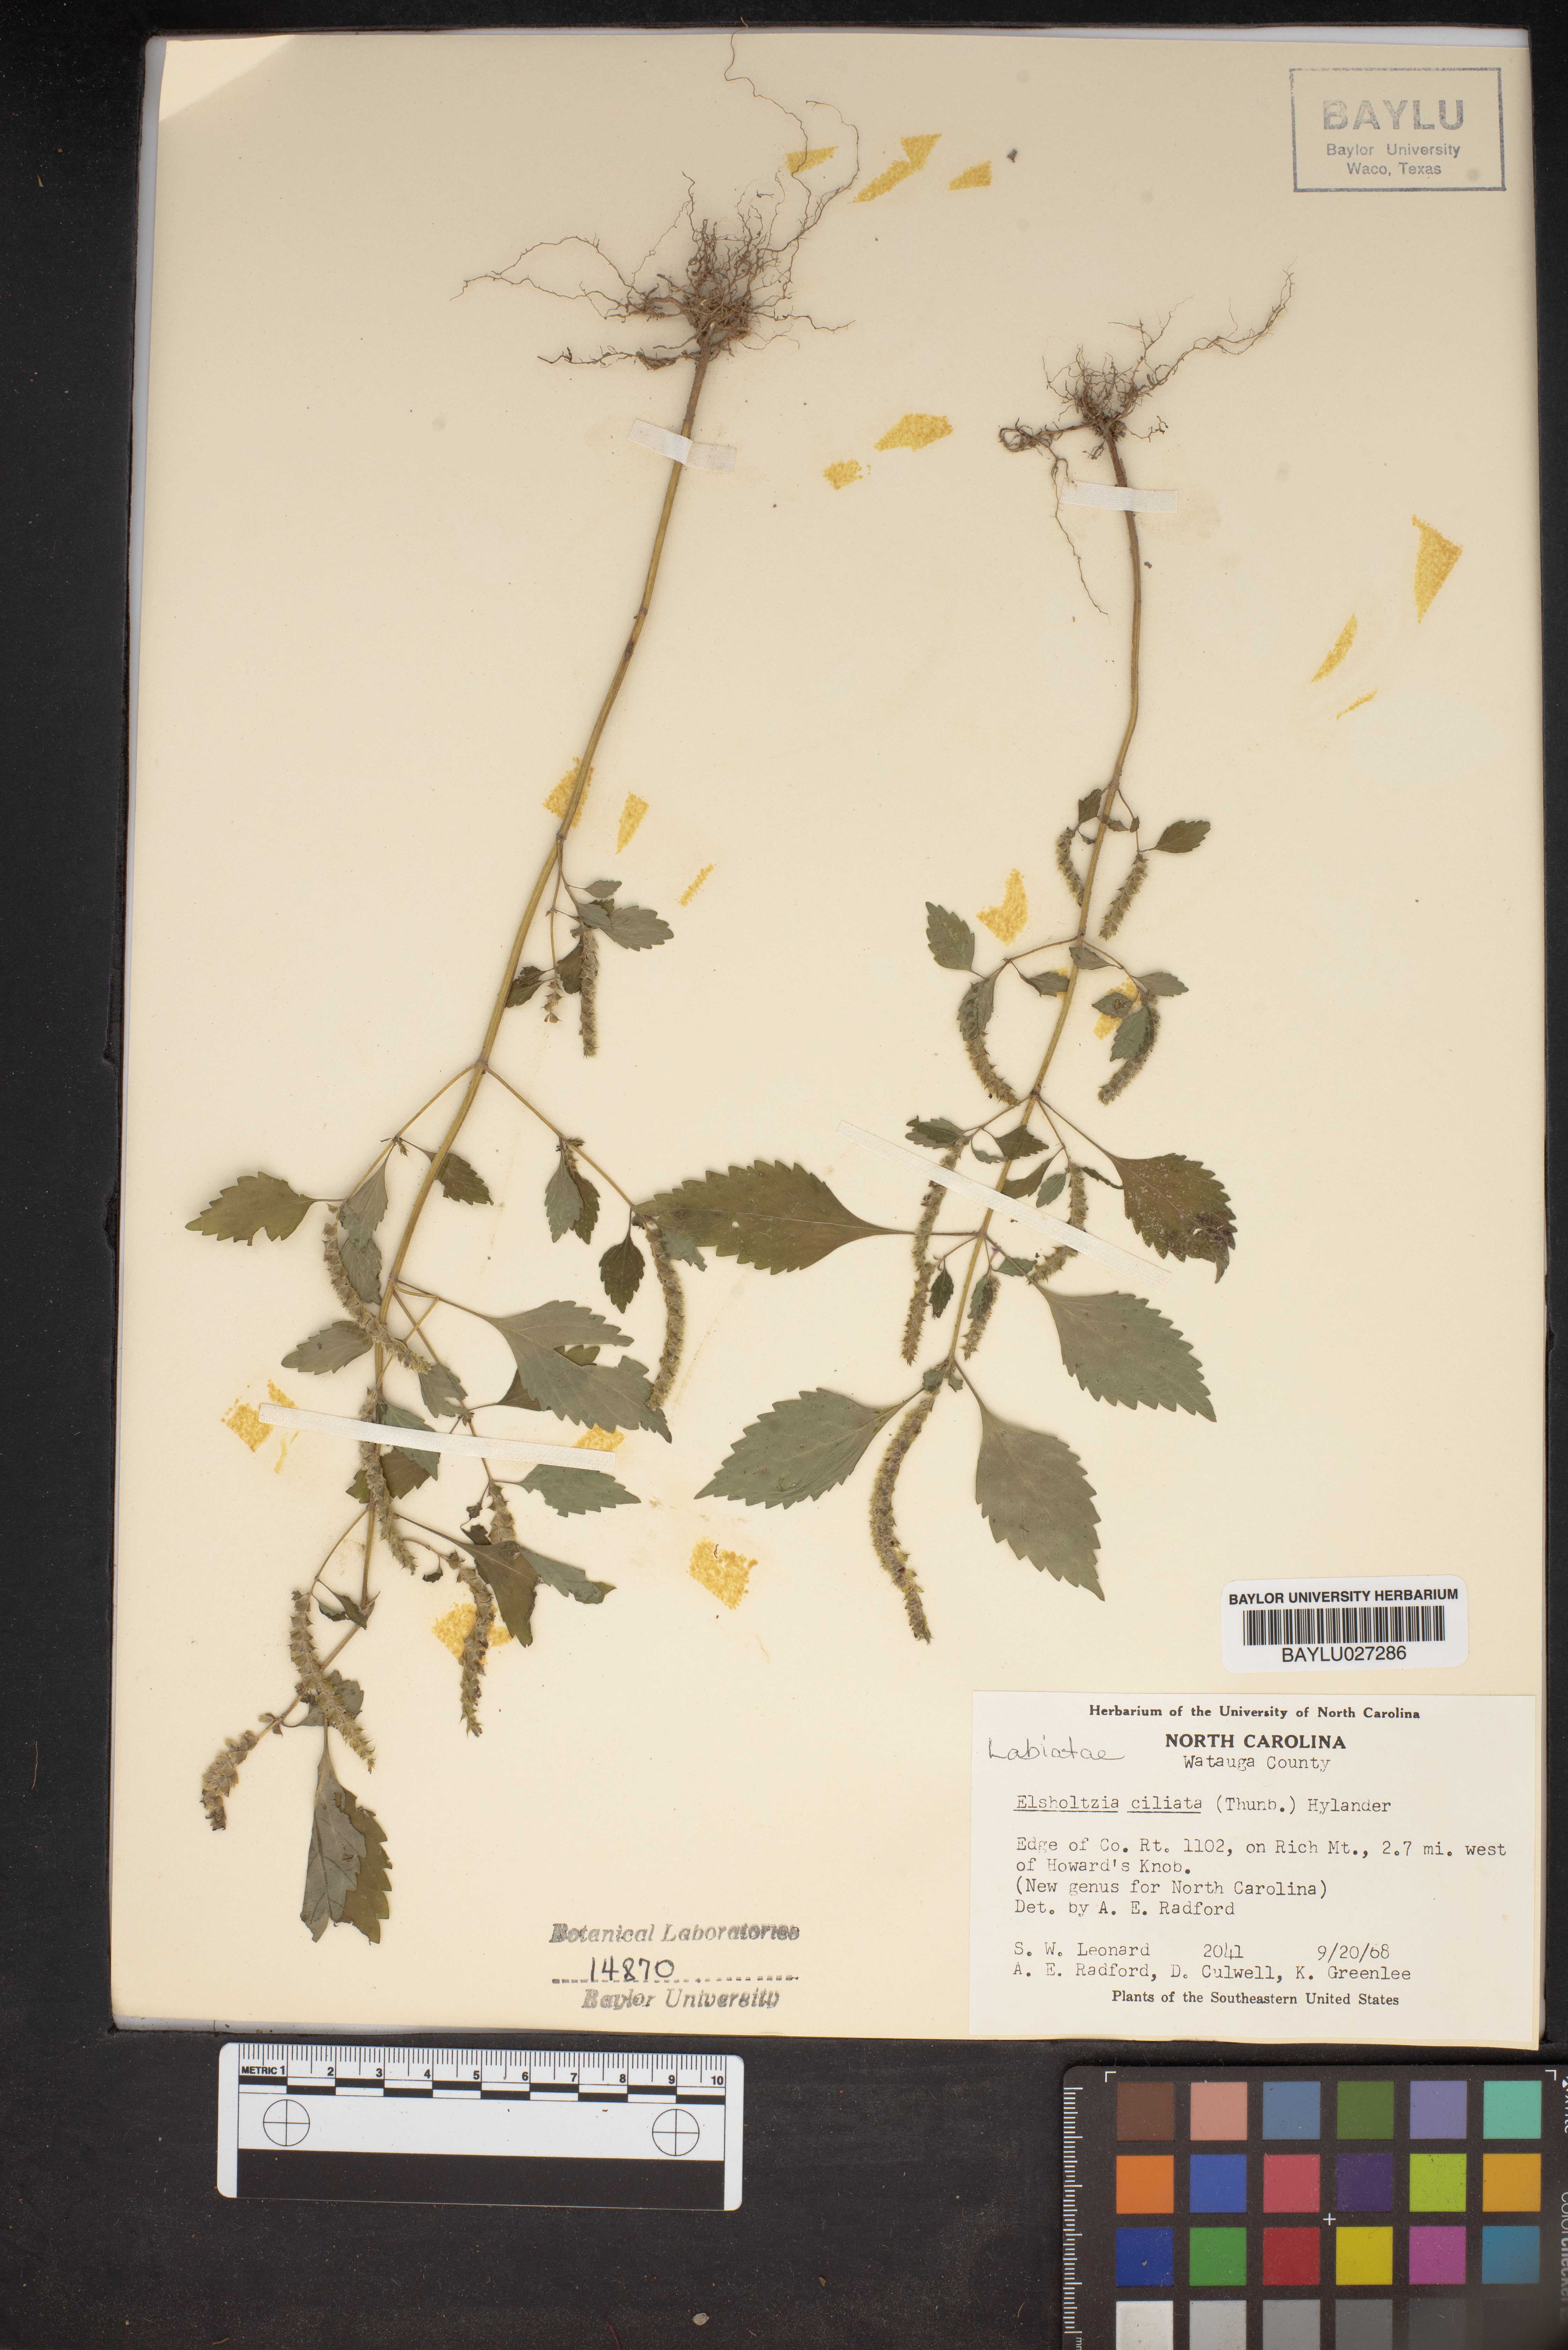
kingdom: Plantae
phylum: Tracheophyta
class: Magnoliopsida
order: Lamiales
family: Lamiaceae
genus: Elsholtzia
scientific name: Elsholtzia ciliata
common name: Ciliate elsholtzia
